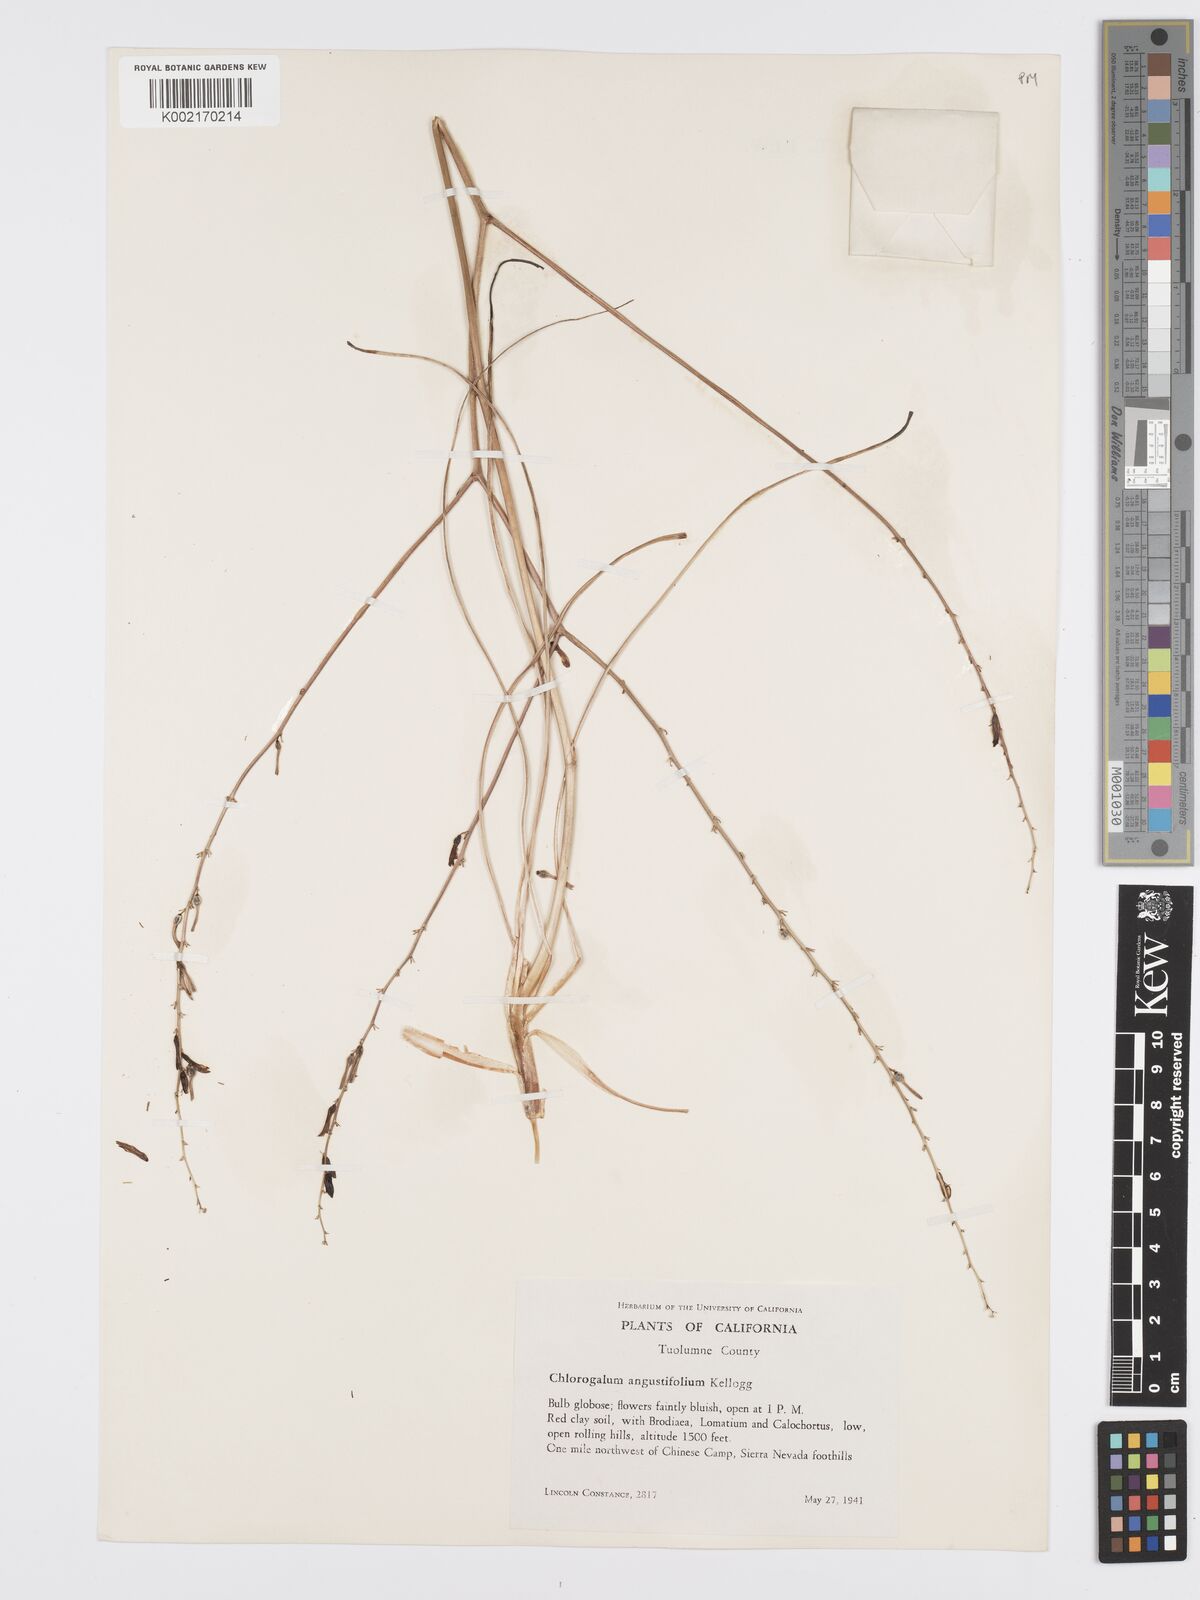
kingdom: Plantae
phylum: Tracheophyta
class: Liliopsida
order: Asparagales
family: Asparagaceae
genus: Chlorogalum
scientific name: Chlorogalum angustifolium
